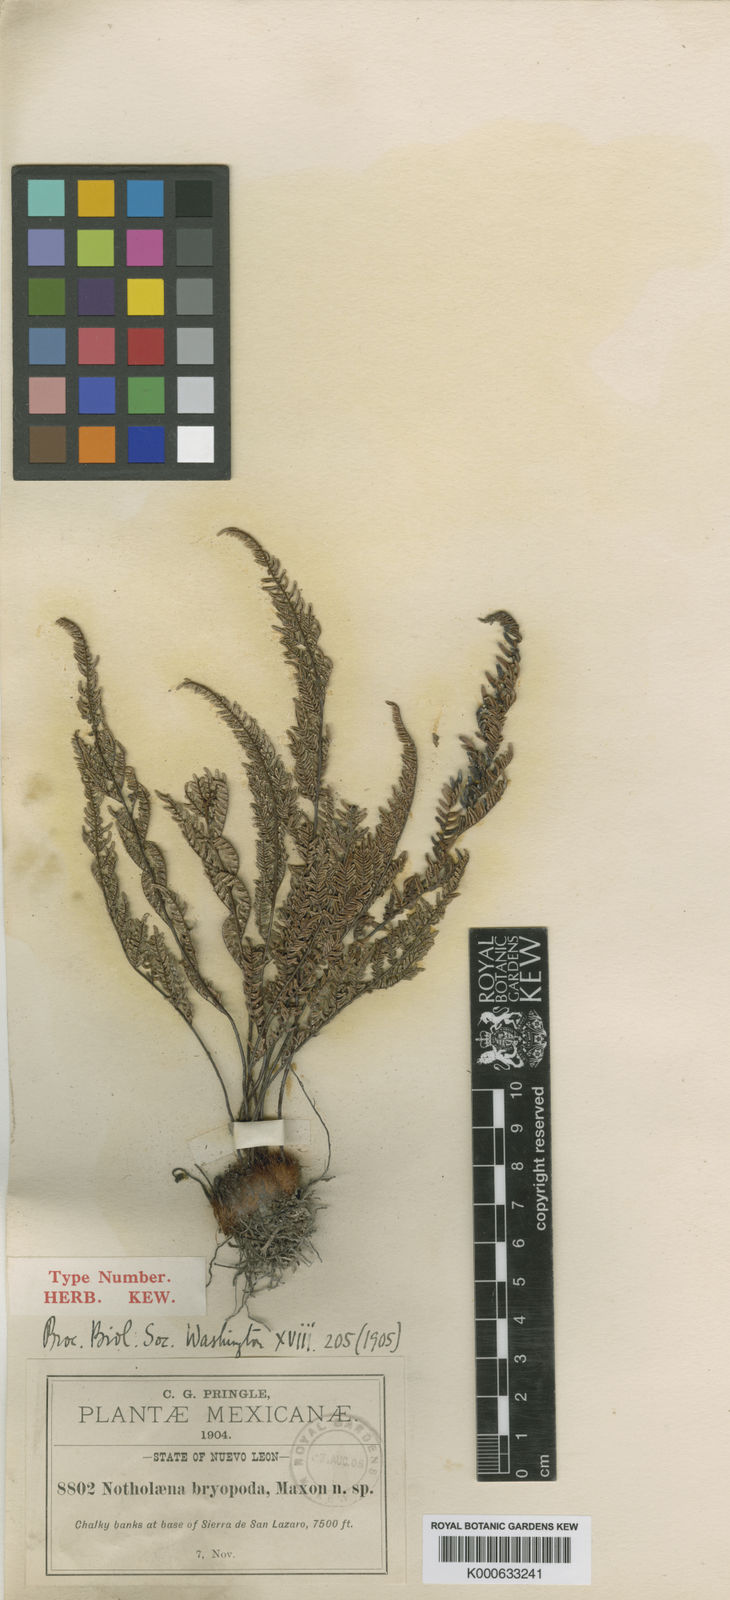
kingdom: Plantae
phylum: Tracheophyta
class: Polypodiopsida
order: Polypodiales
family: Pteridaceae
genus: Notholaena
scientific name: Notholaena bryopoda
